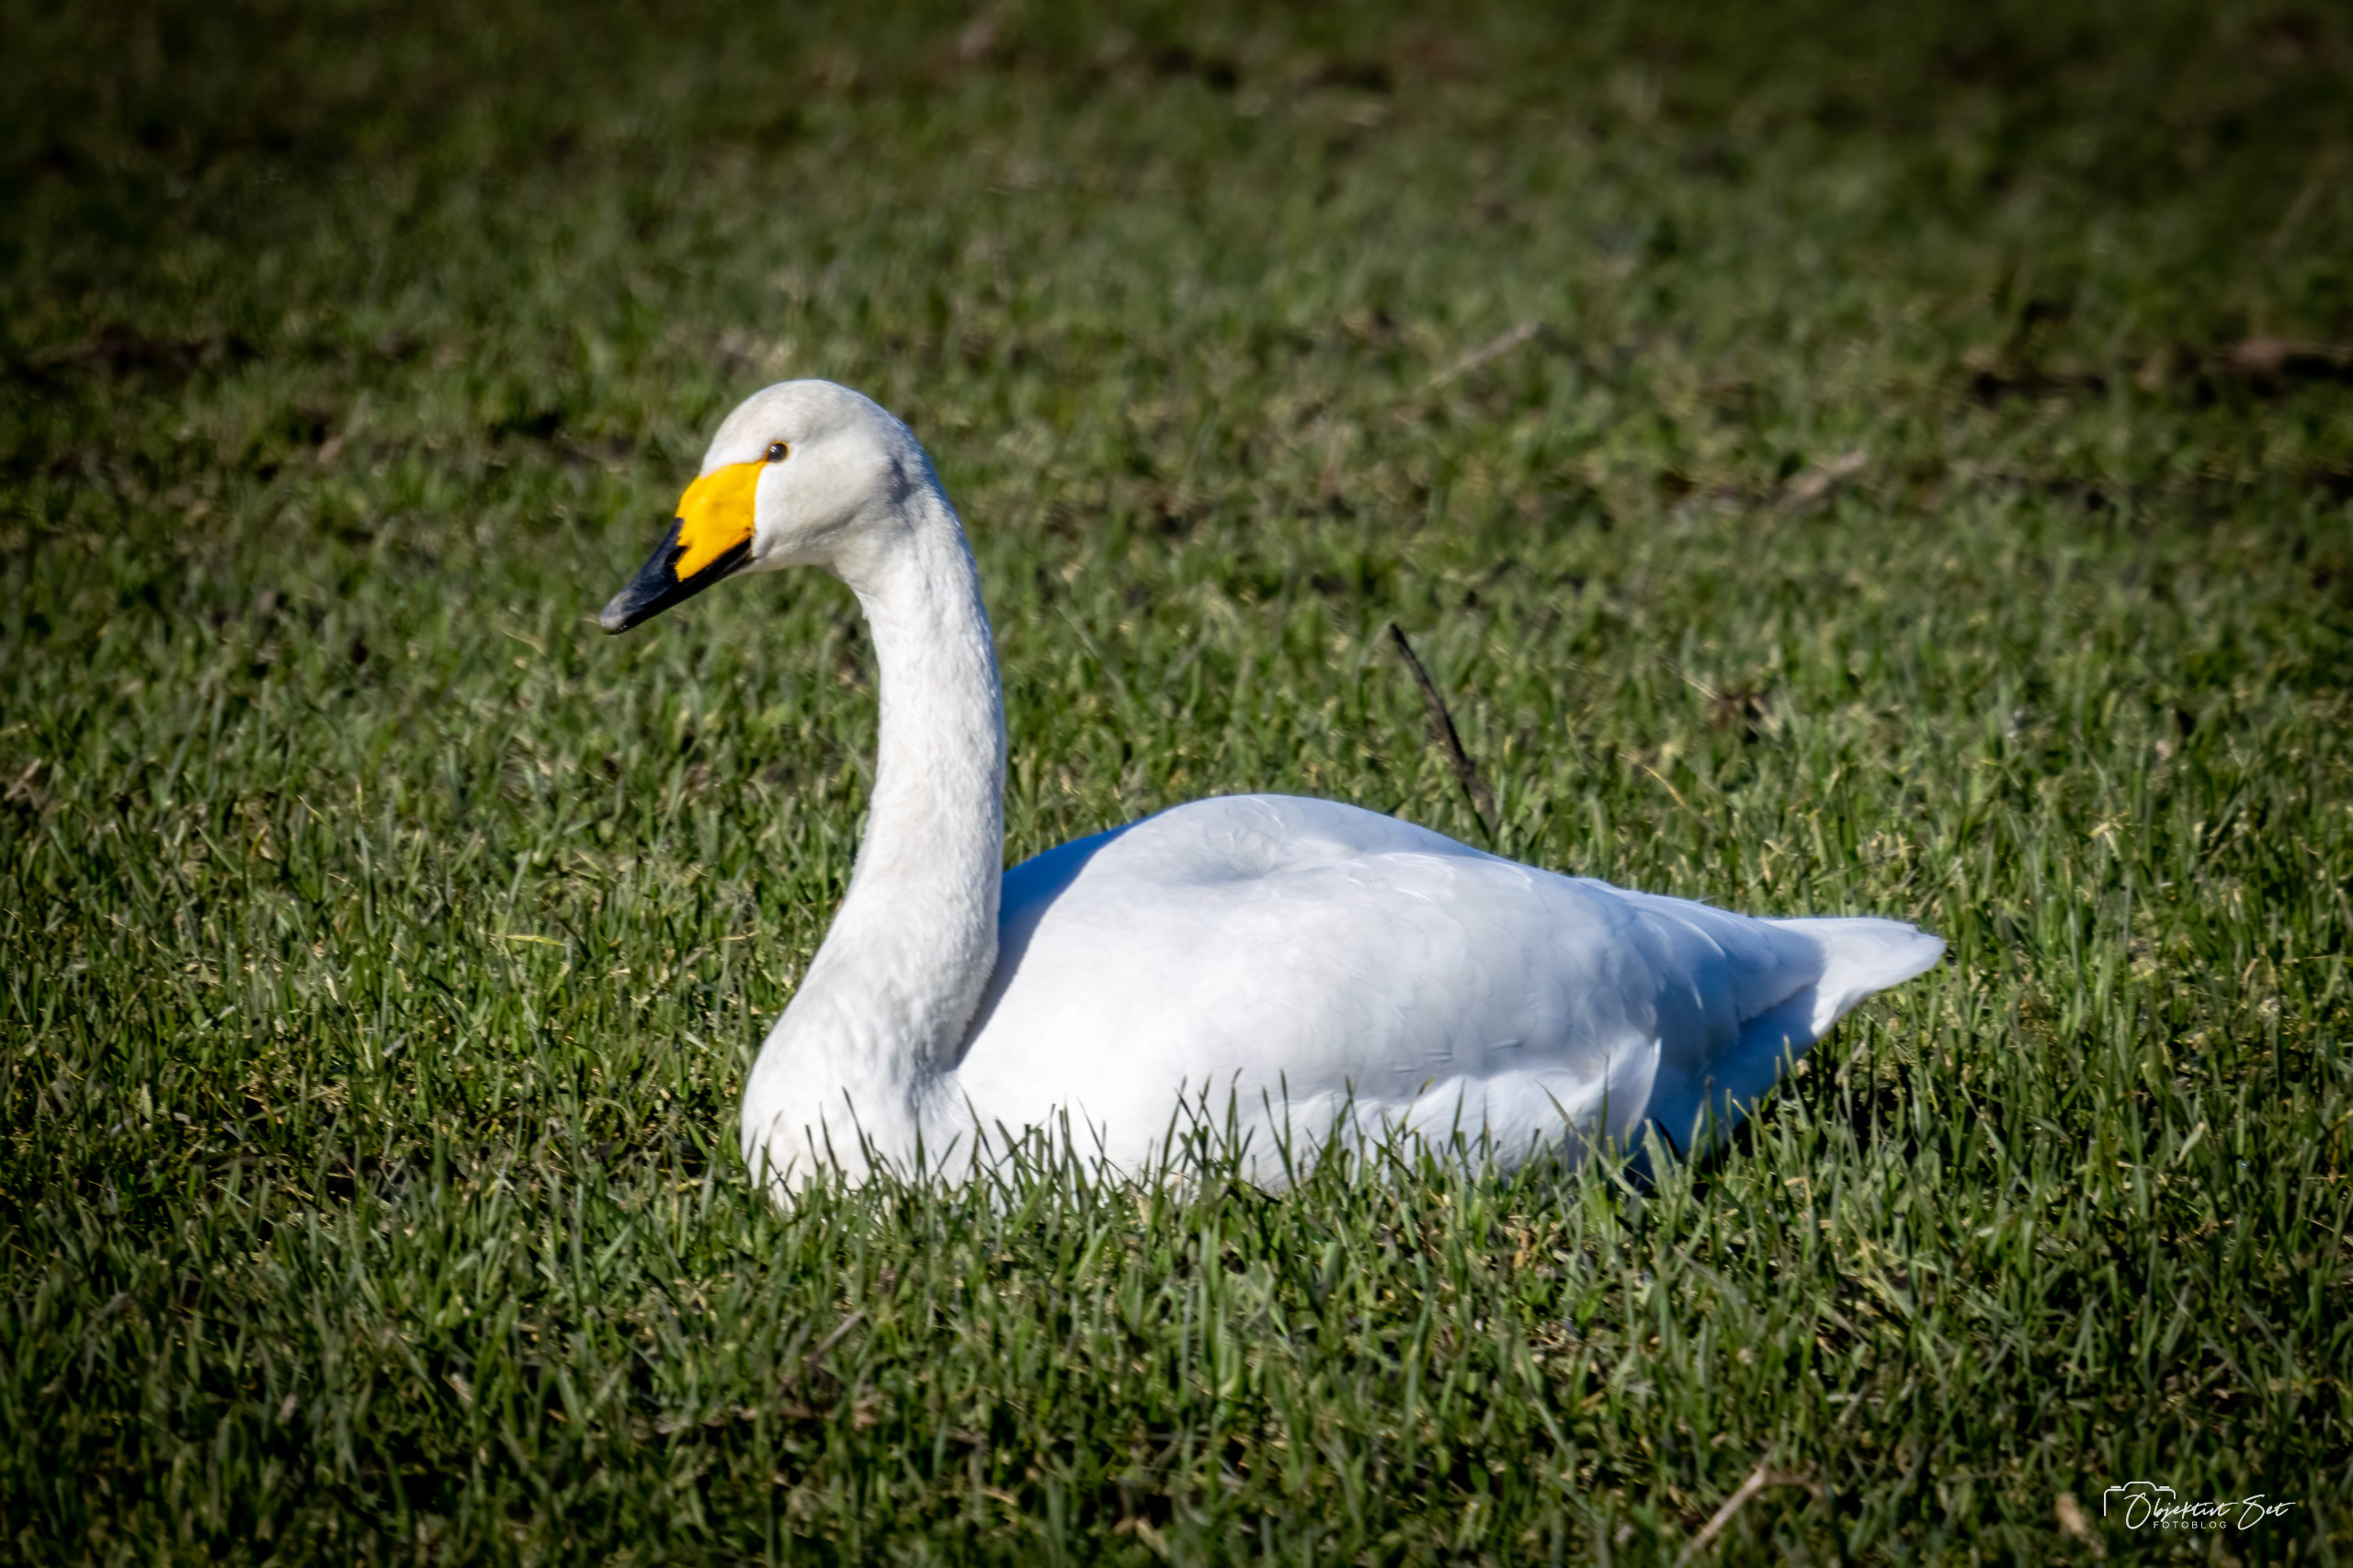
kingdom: Animalia
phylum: Chordata
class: Aves
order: Anseriformes
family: Anatidae
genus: Cygnus
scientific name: Cygnus cygnus
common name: Sangsvane
